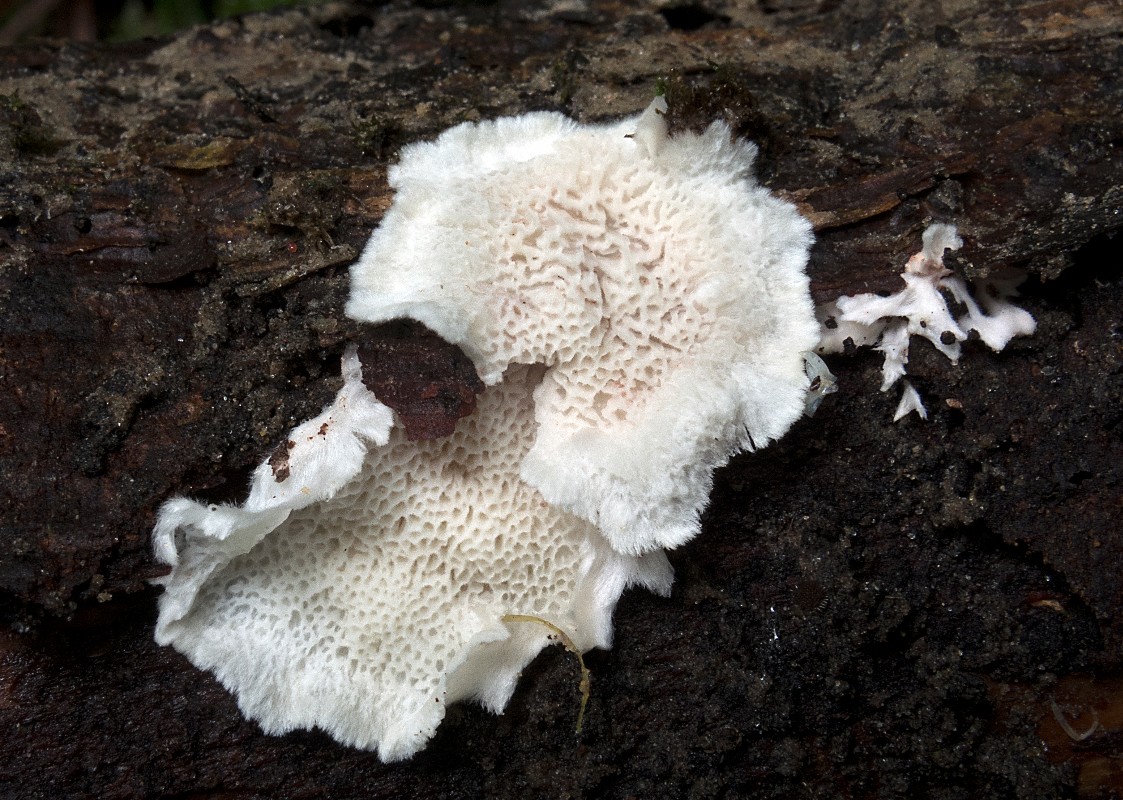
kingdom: Fungi
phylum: Basidiomycota
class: Agaricomycetes
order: Polyporales
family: Dacryobolaceae
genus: Osteina
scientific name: Osteina undosa
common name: storporet kødporesvamp
